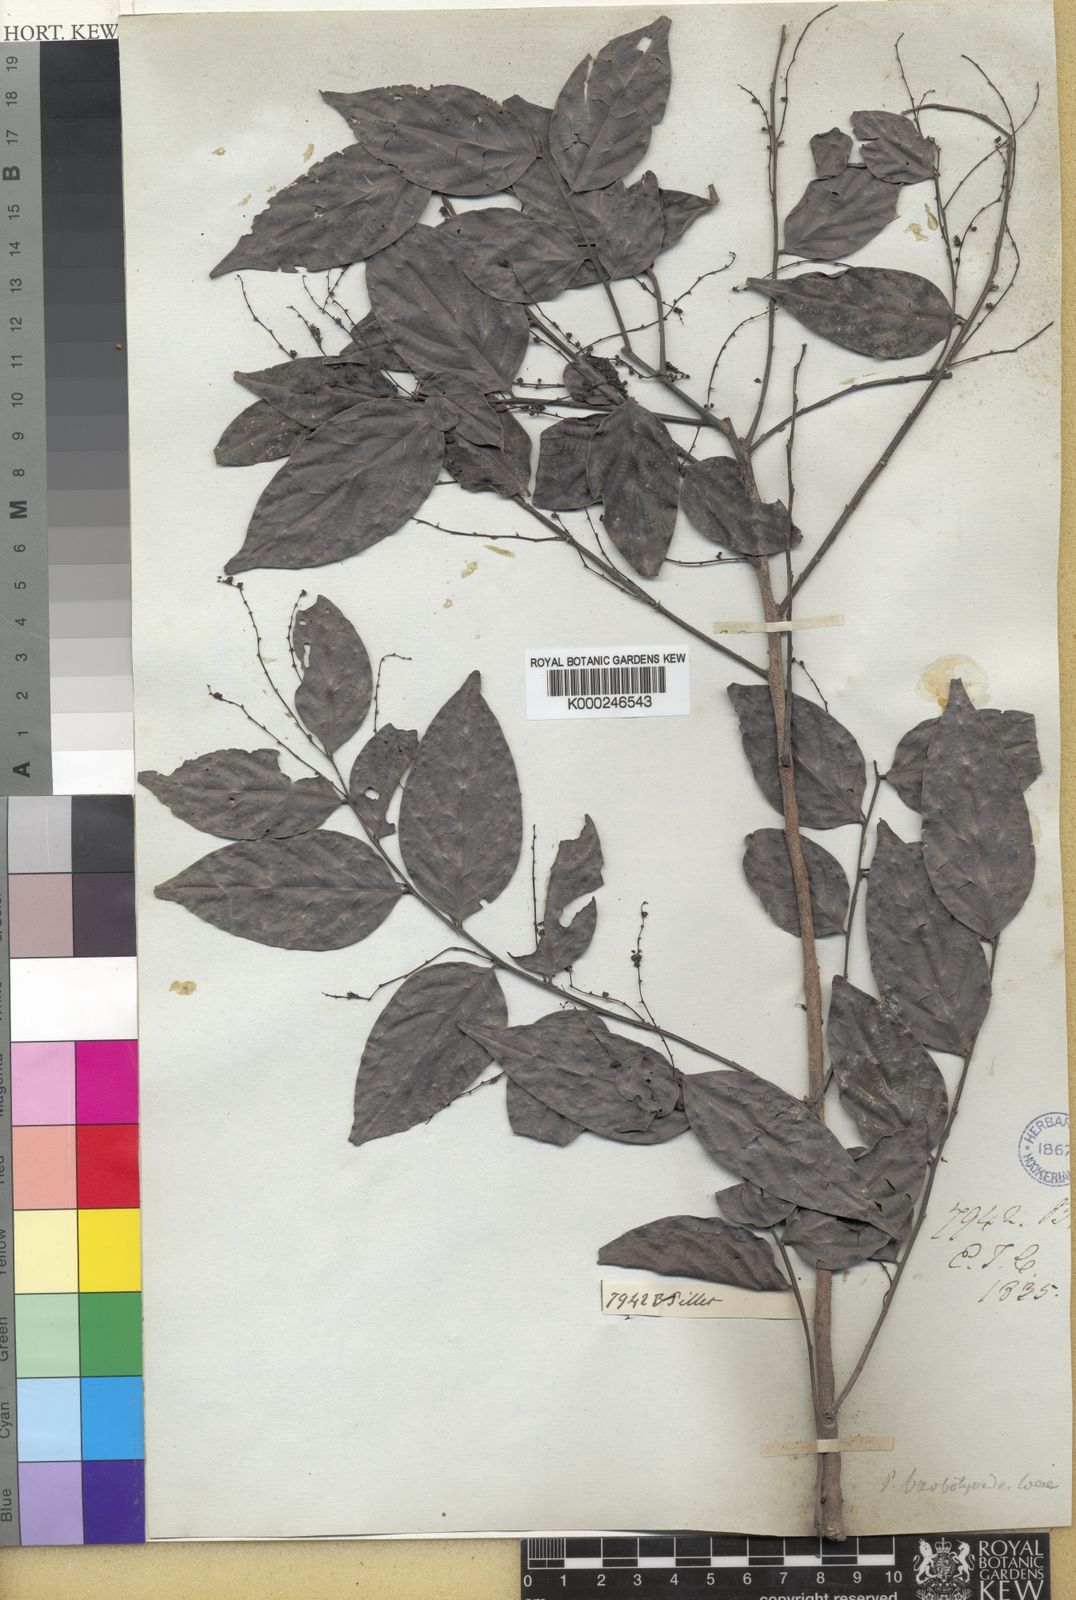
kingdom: Plantae
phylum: Tracheophyta
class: Magnoliopsida
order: Malpighiales
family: Phyllanthaceae
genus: Phyllanthus
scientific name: Phyllanthus
